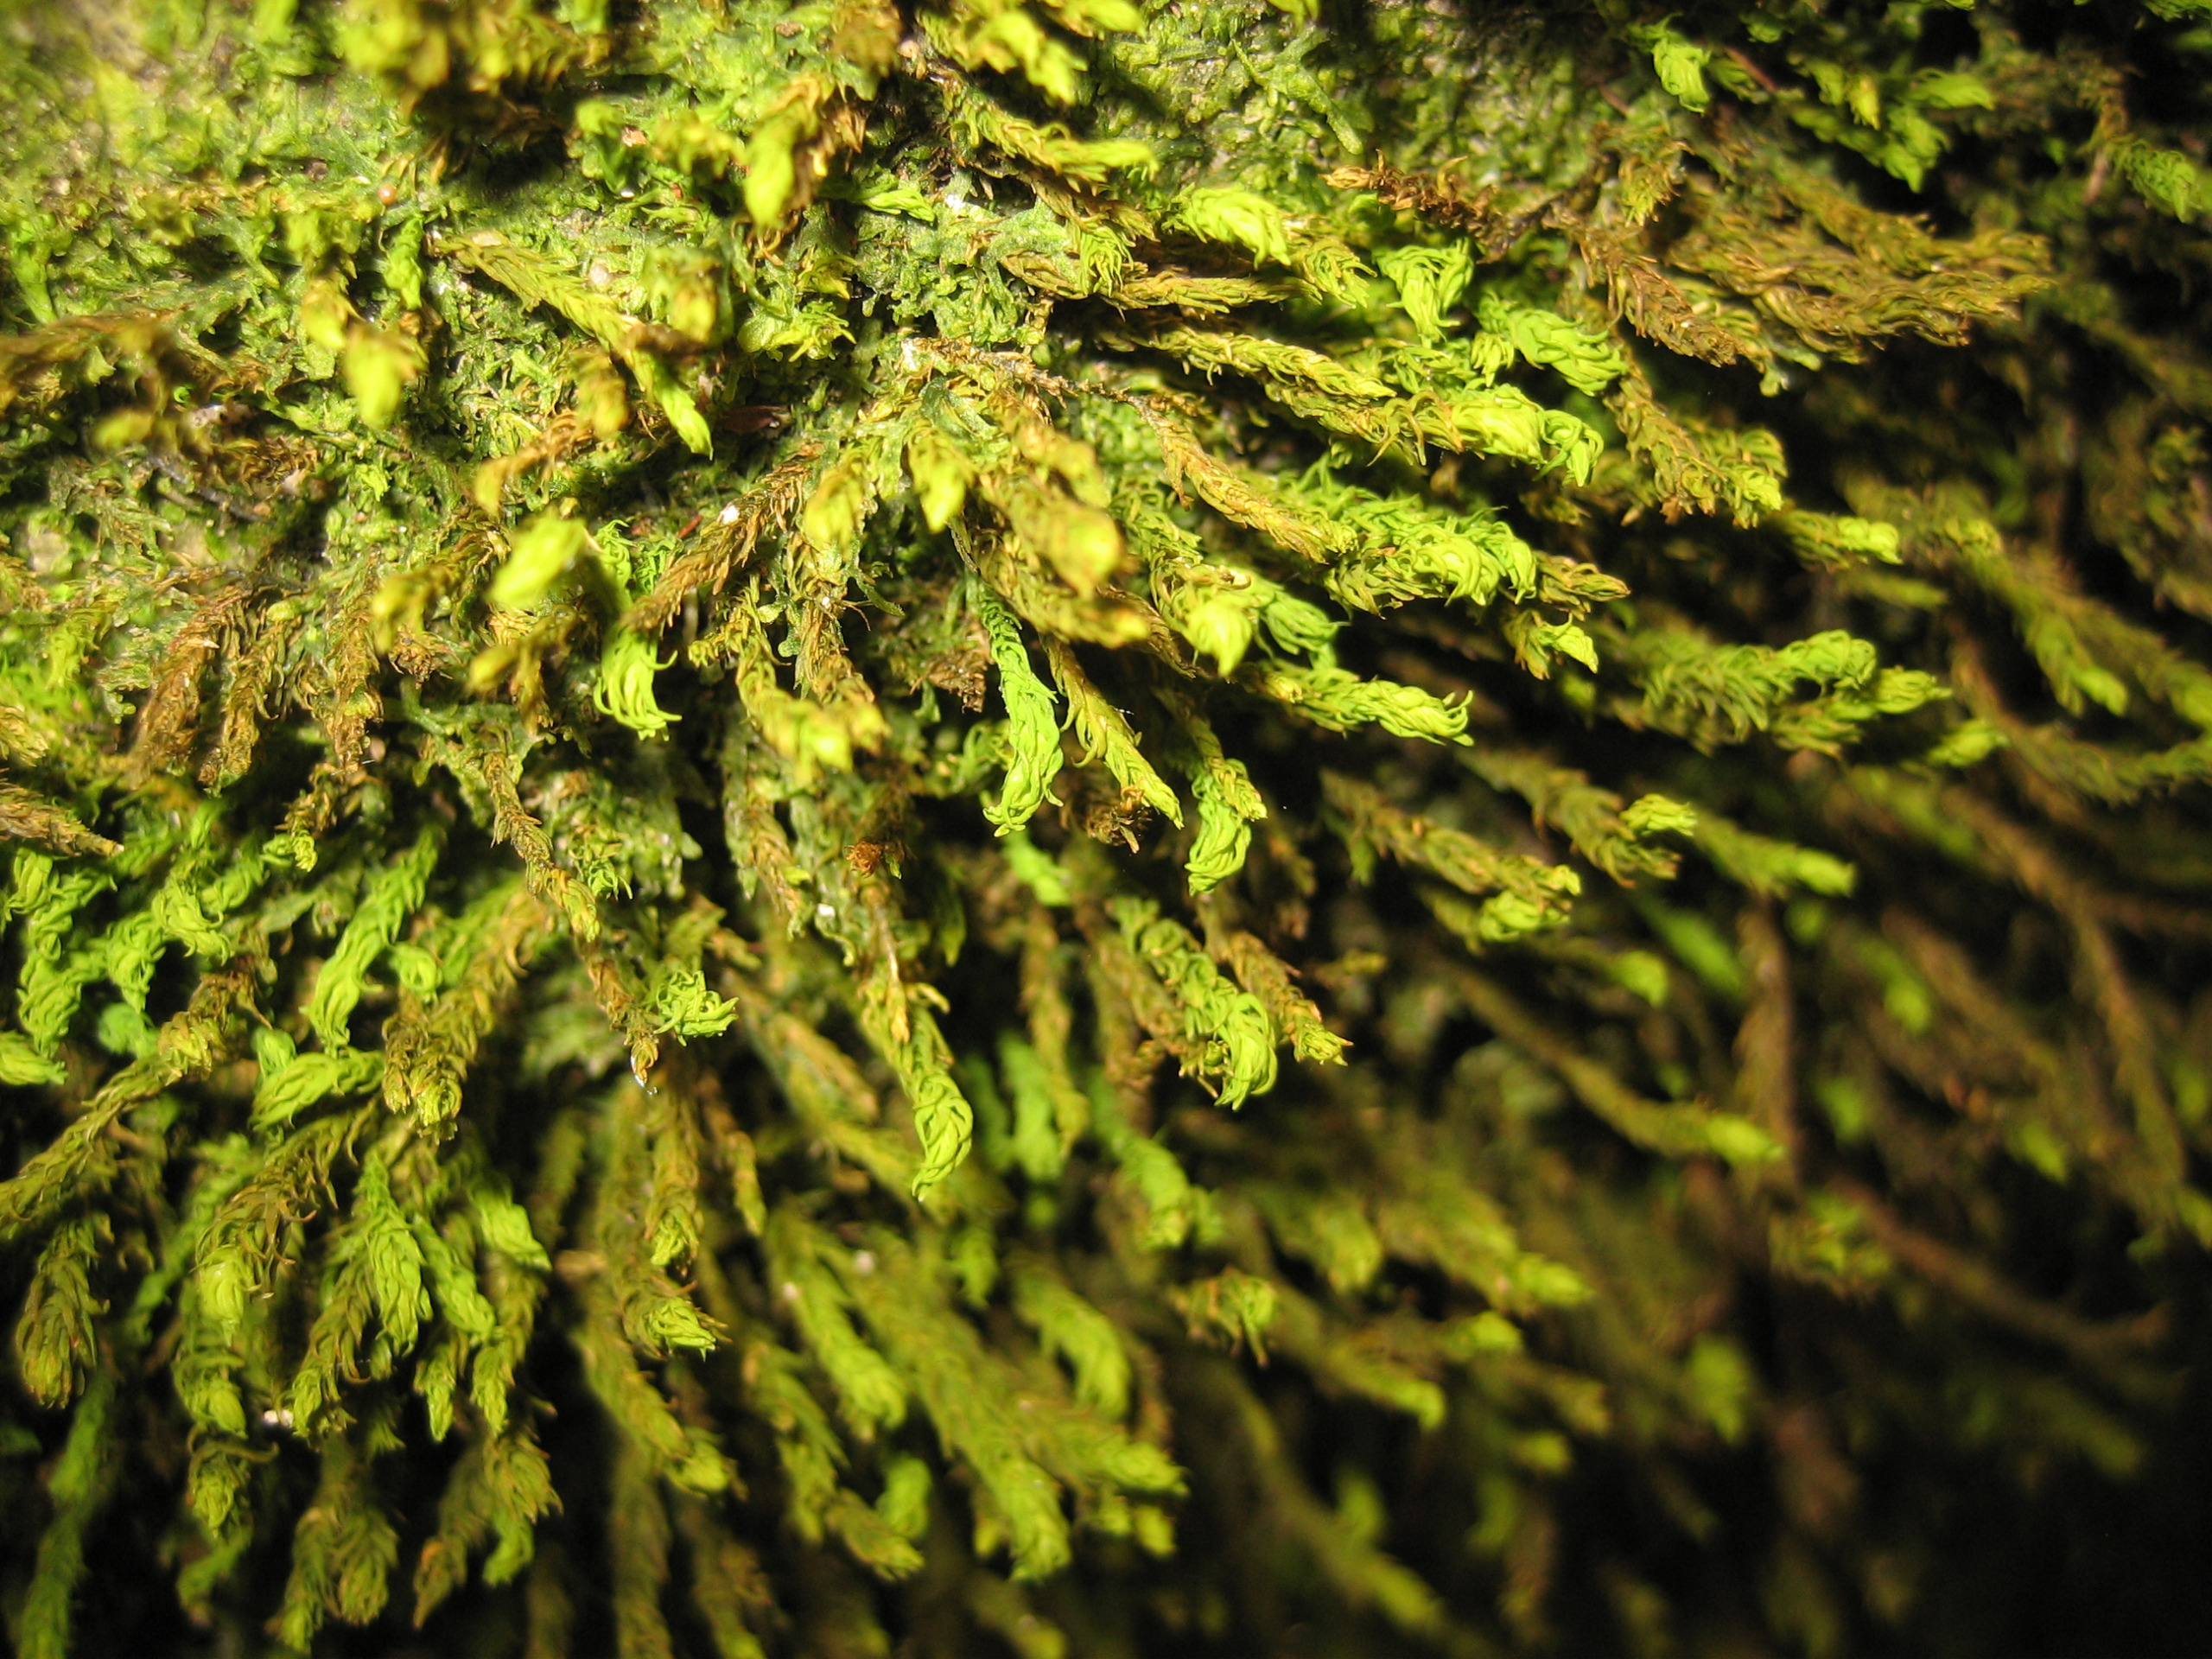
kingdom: Plantae
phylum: Bryophyta
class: Bryopsida
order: Hypnales
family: Anomodontaceae
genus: Anomodon
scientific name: Anomodon viticulosus
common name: Robust matblad
